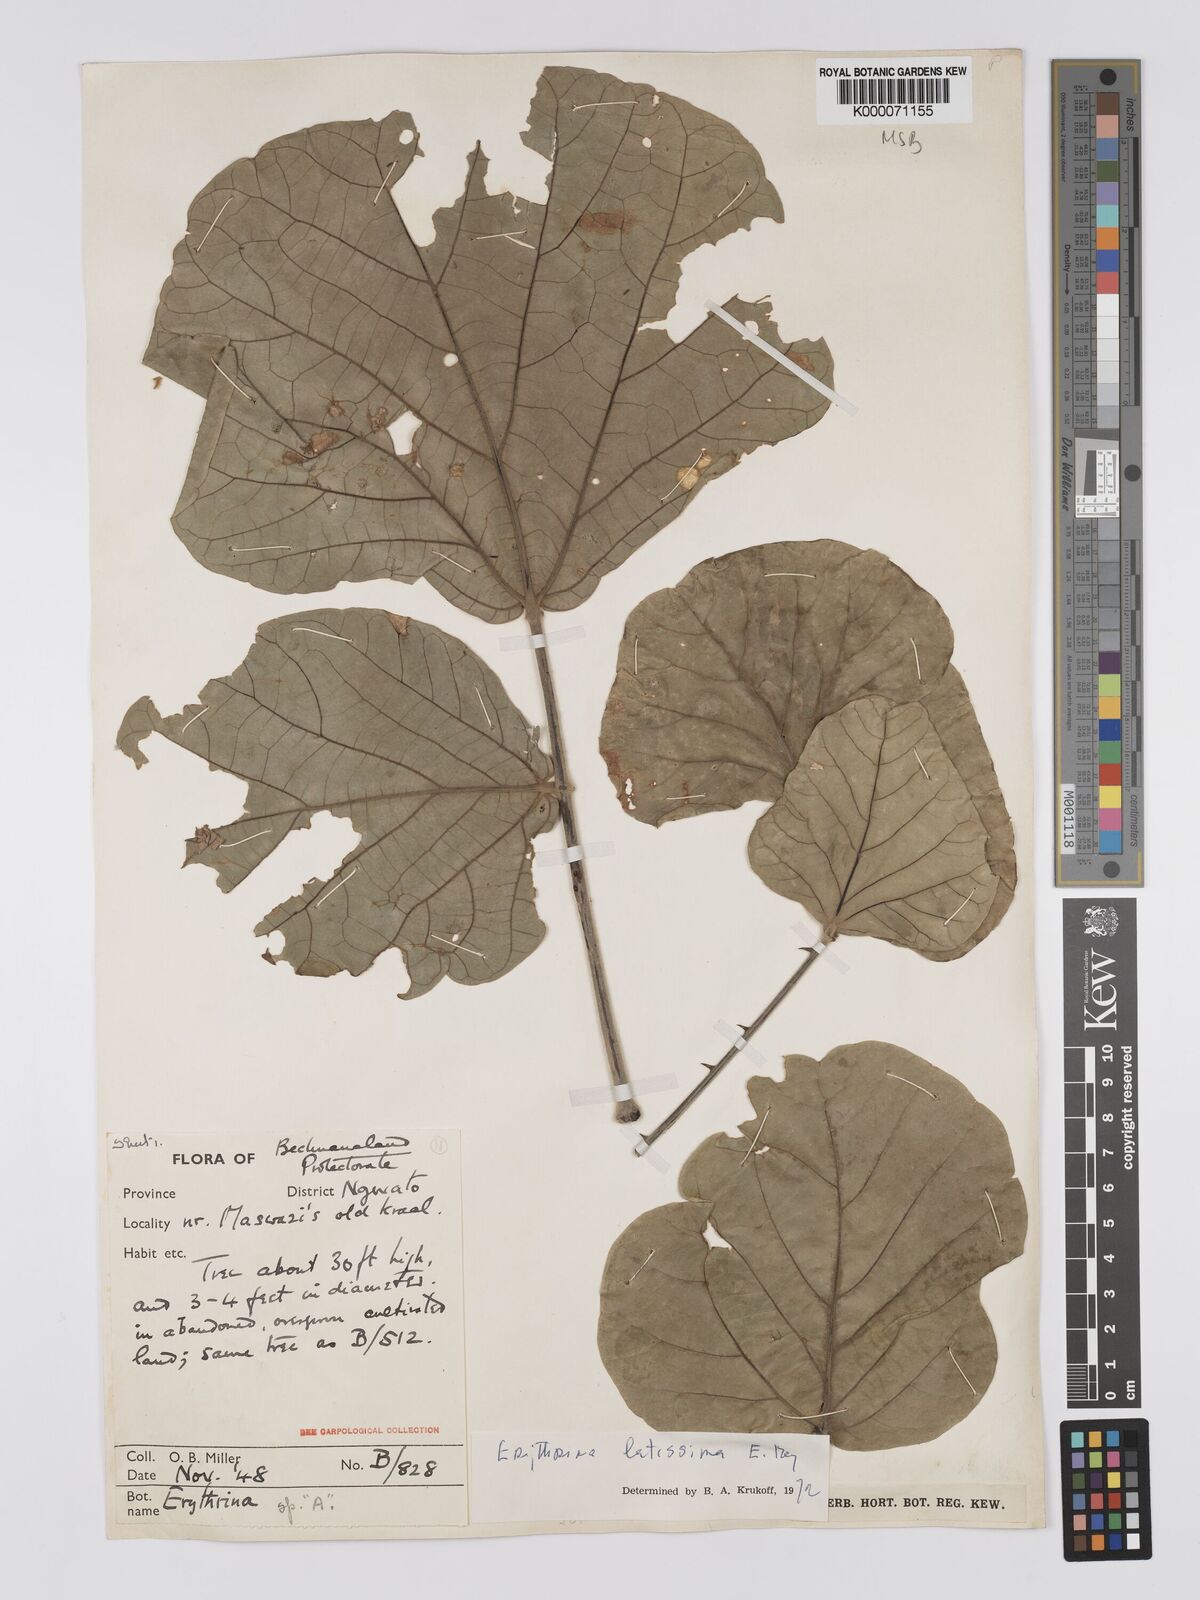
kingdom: Plantae
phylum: Tracheophyta
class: Magnoliopsida
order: Fabales
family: Fabaceae
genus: Erythrina
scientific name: Erythrina latissima
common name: Broad-leaved coral tree
